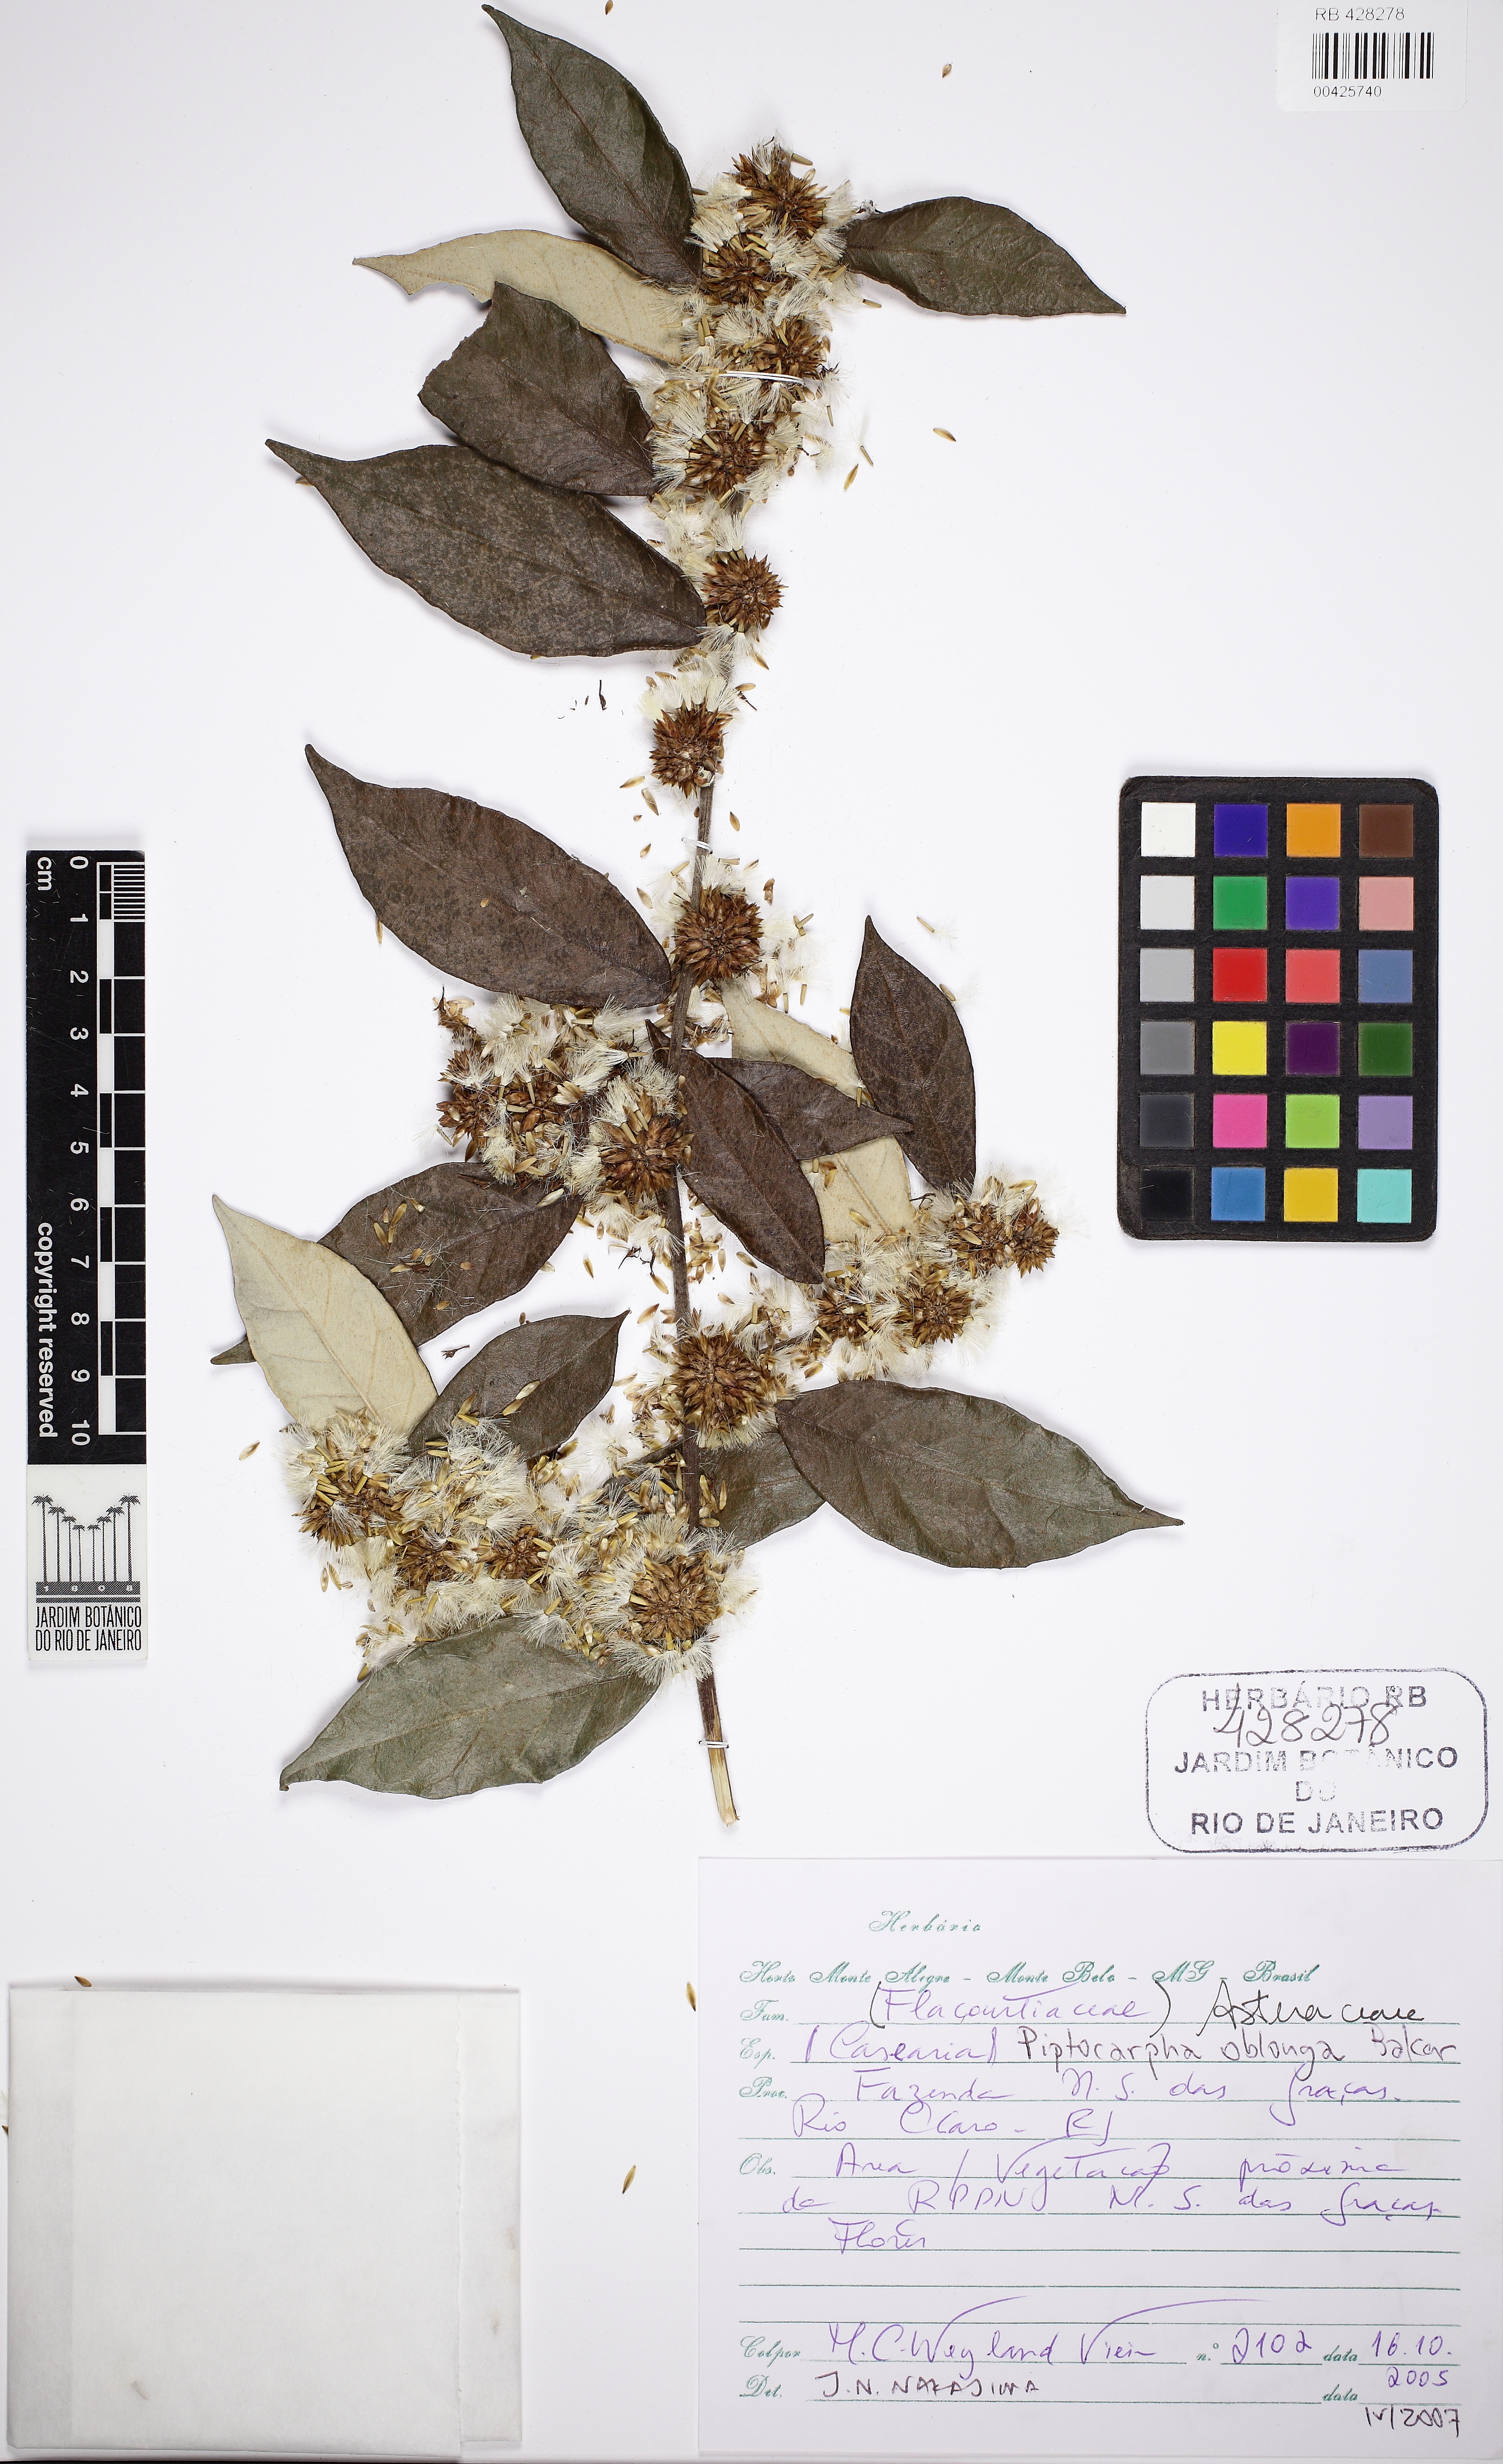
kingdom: Plantae
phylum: Tracheophyta
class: Magnoliopsida
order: Asterales
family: Asteraceae
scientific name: Asteraceae
